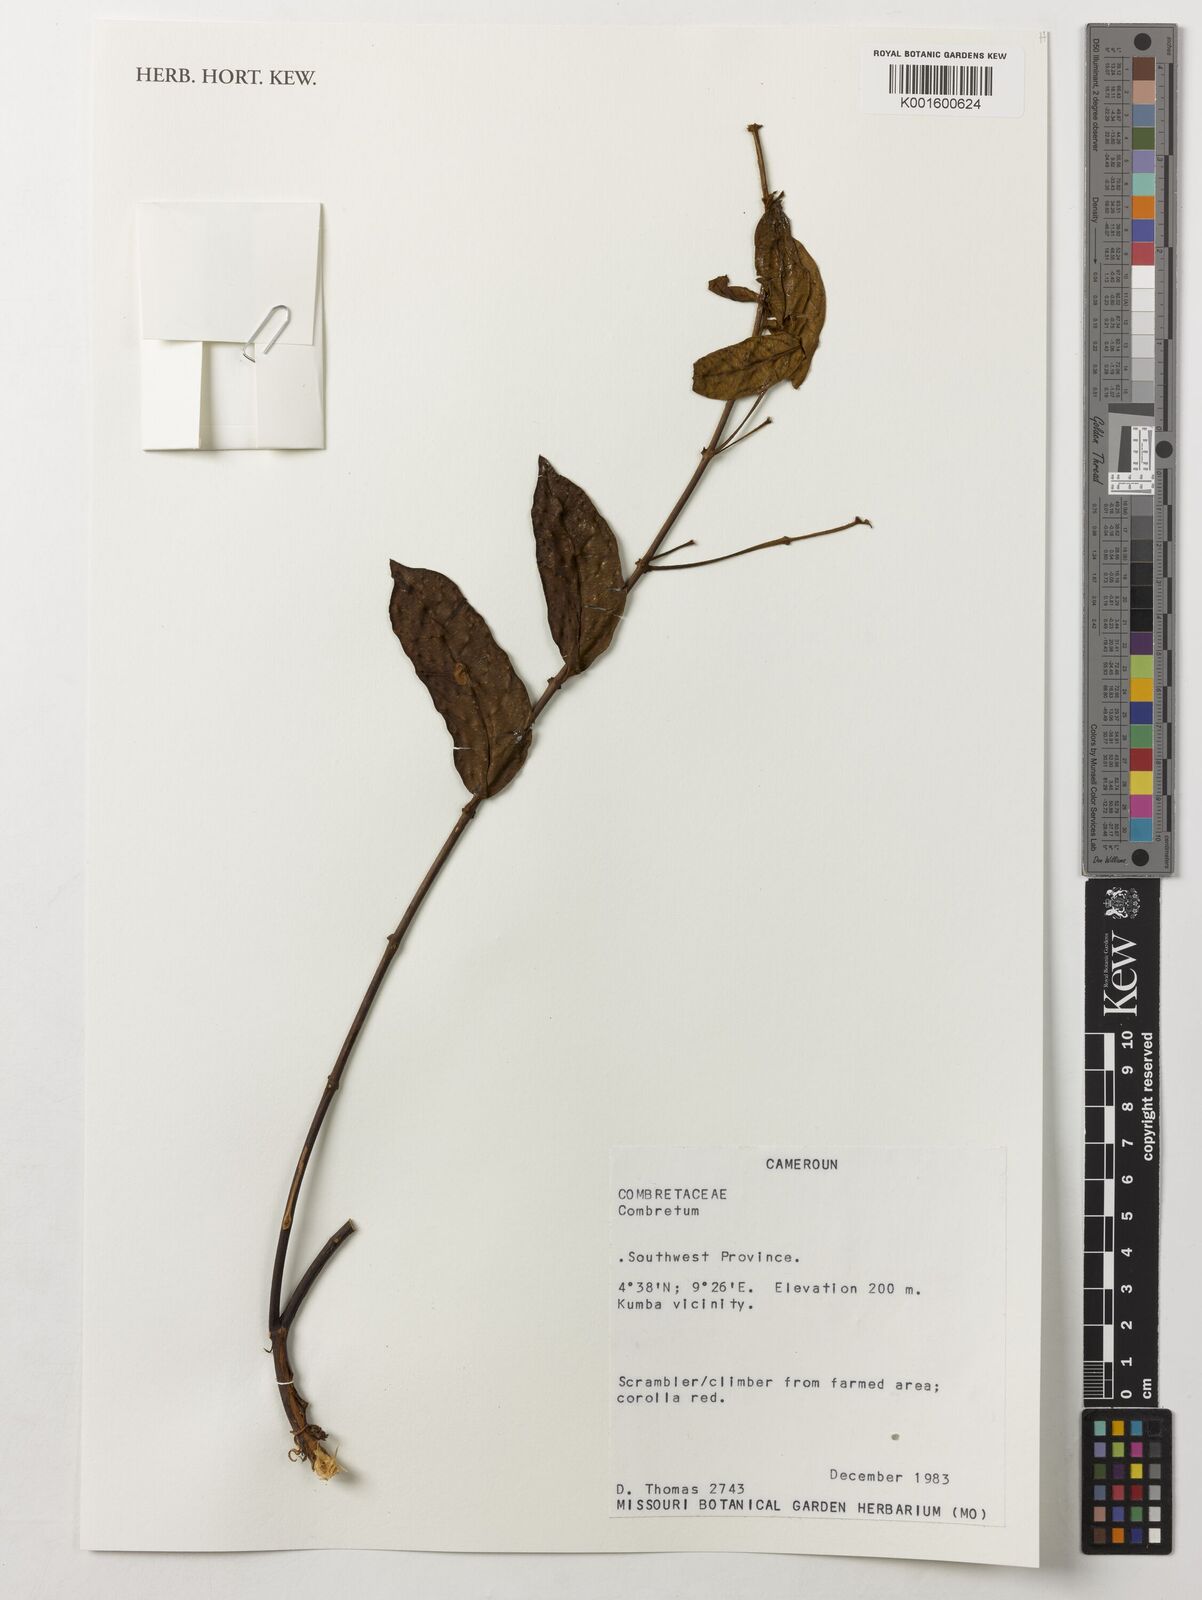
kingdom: Plantae
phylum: Tracheophyta
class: Magnoliopsida
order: Myrtales
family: Combretaceae
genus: Combretum
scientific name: Combretum
